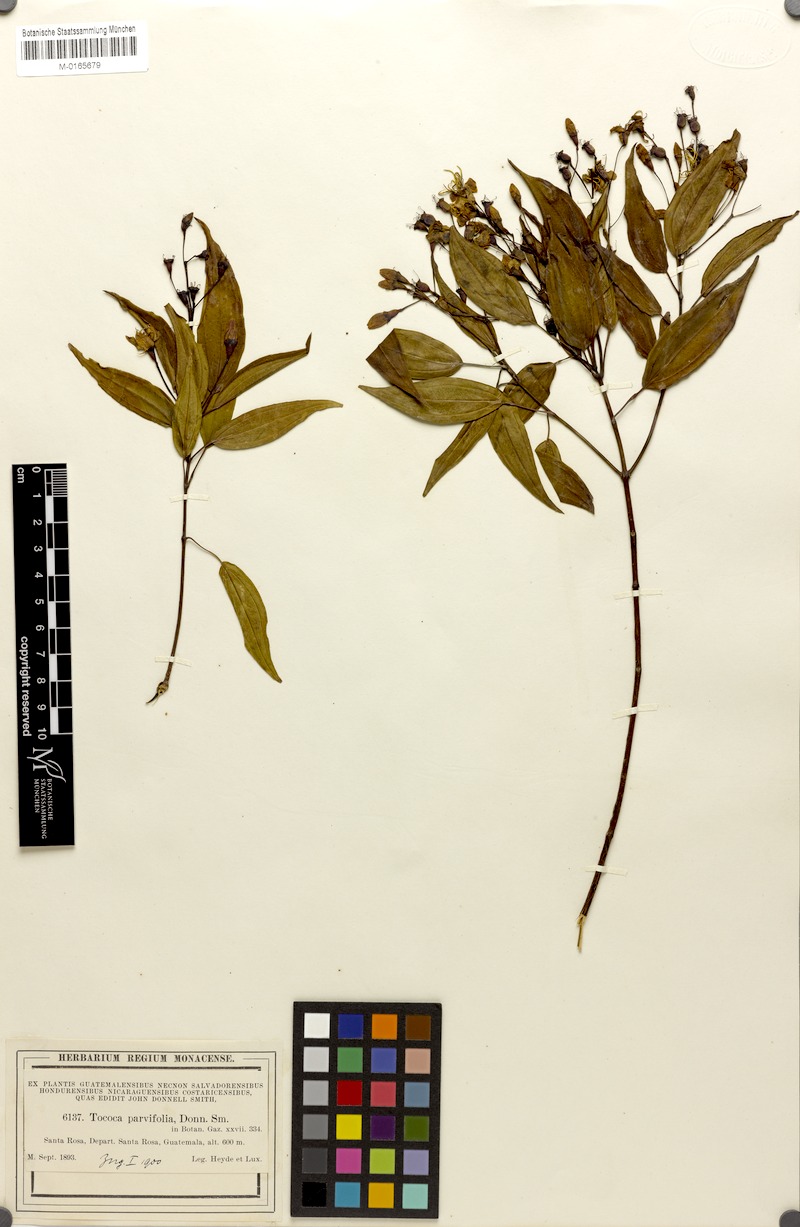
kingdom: Plantae
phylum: Tracheophyta
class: Magnoliopsida
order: Myrtales
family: Melastomataceae
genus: Miconia
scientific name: Miconia zemurrayana
